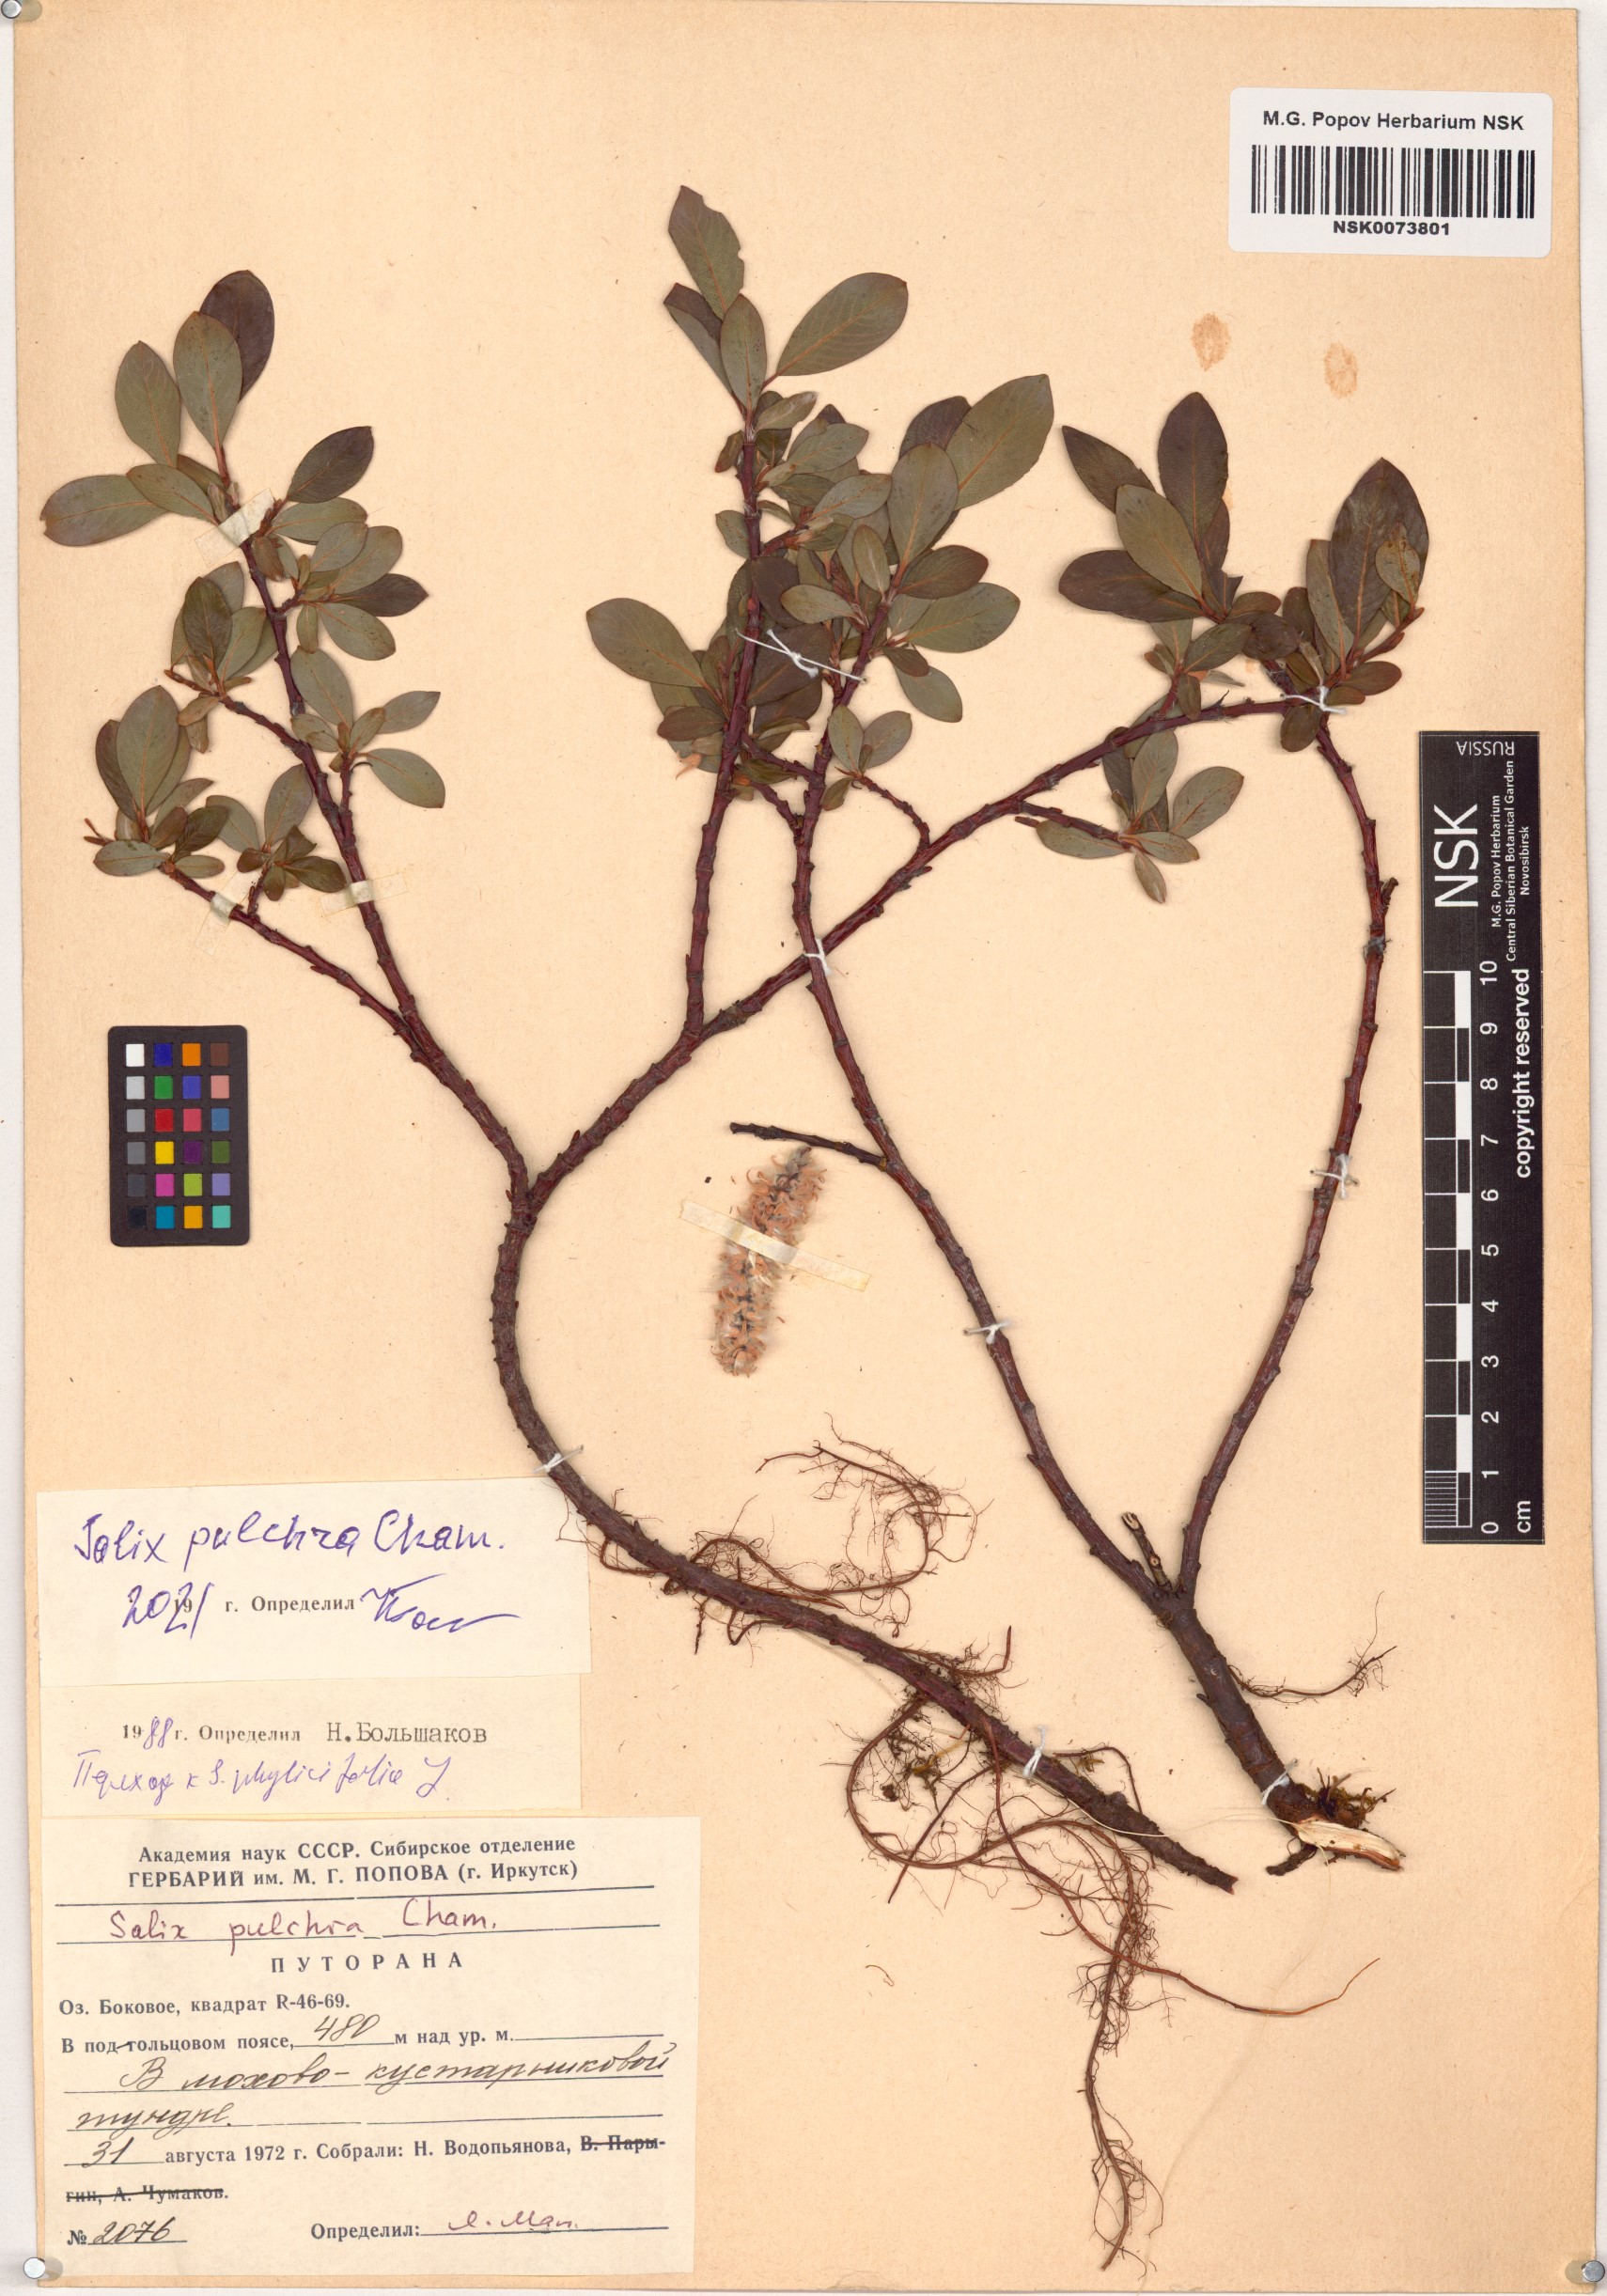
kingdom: Plantae
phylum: Tracheophyta
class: Magnoliopsida
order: Malpighiales
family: Salicaceae
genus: Salix
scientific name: Salix pulchra
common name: Diamond-leaved willow
